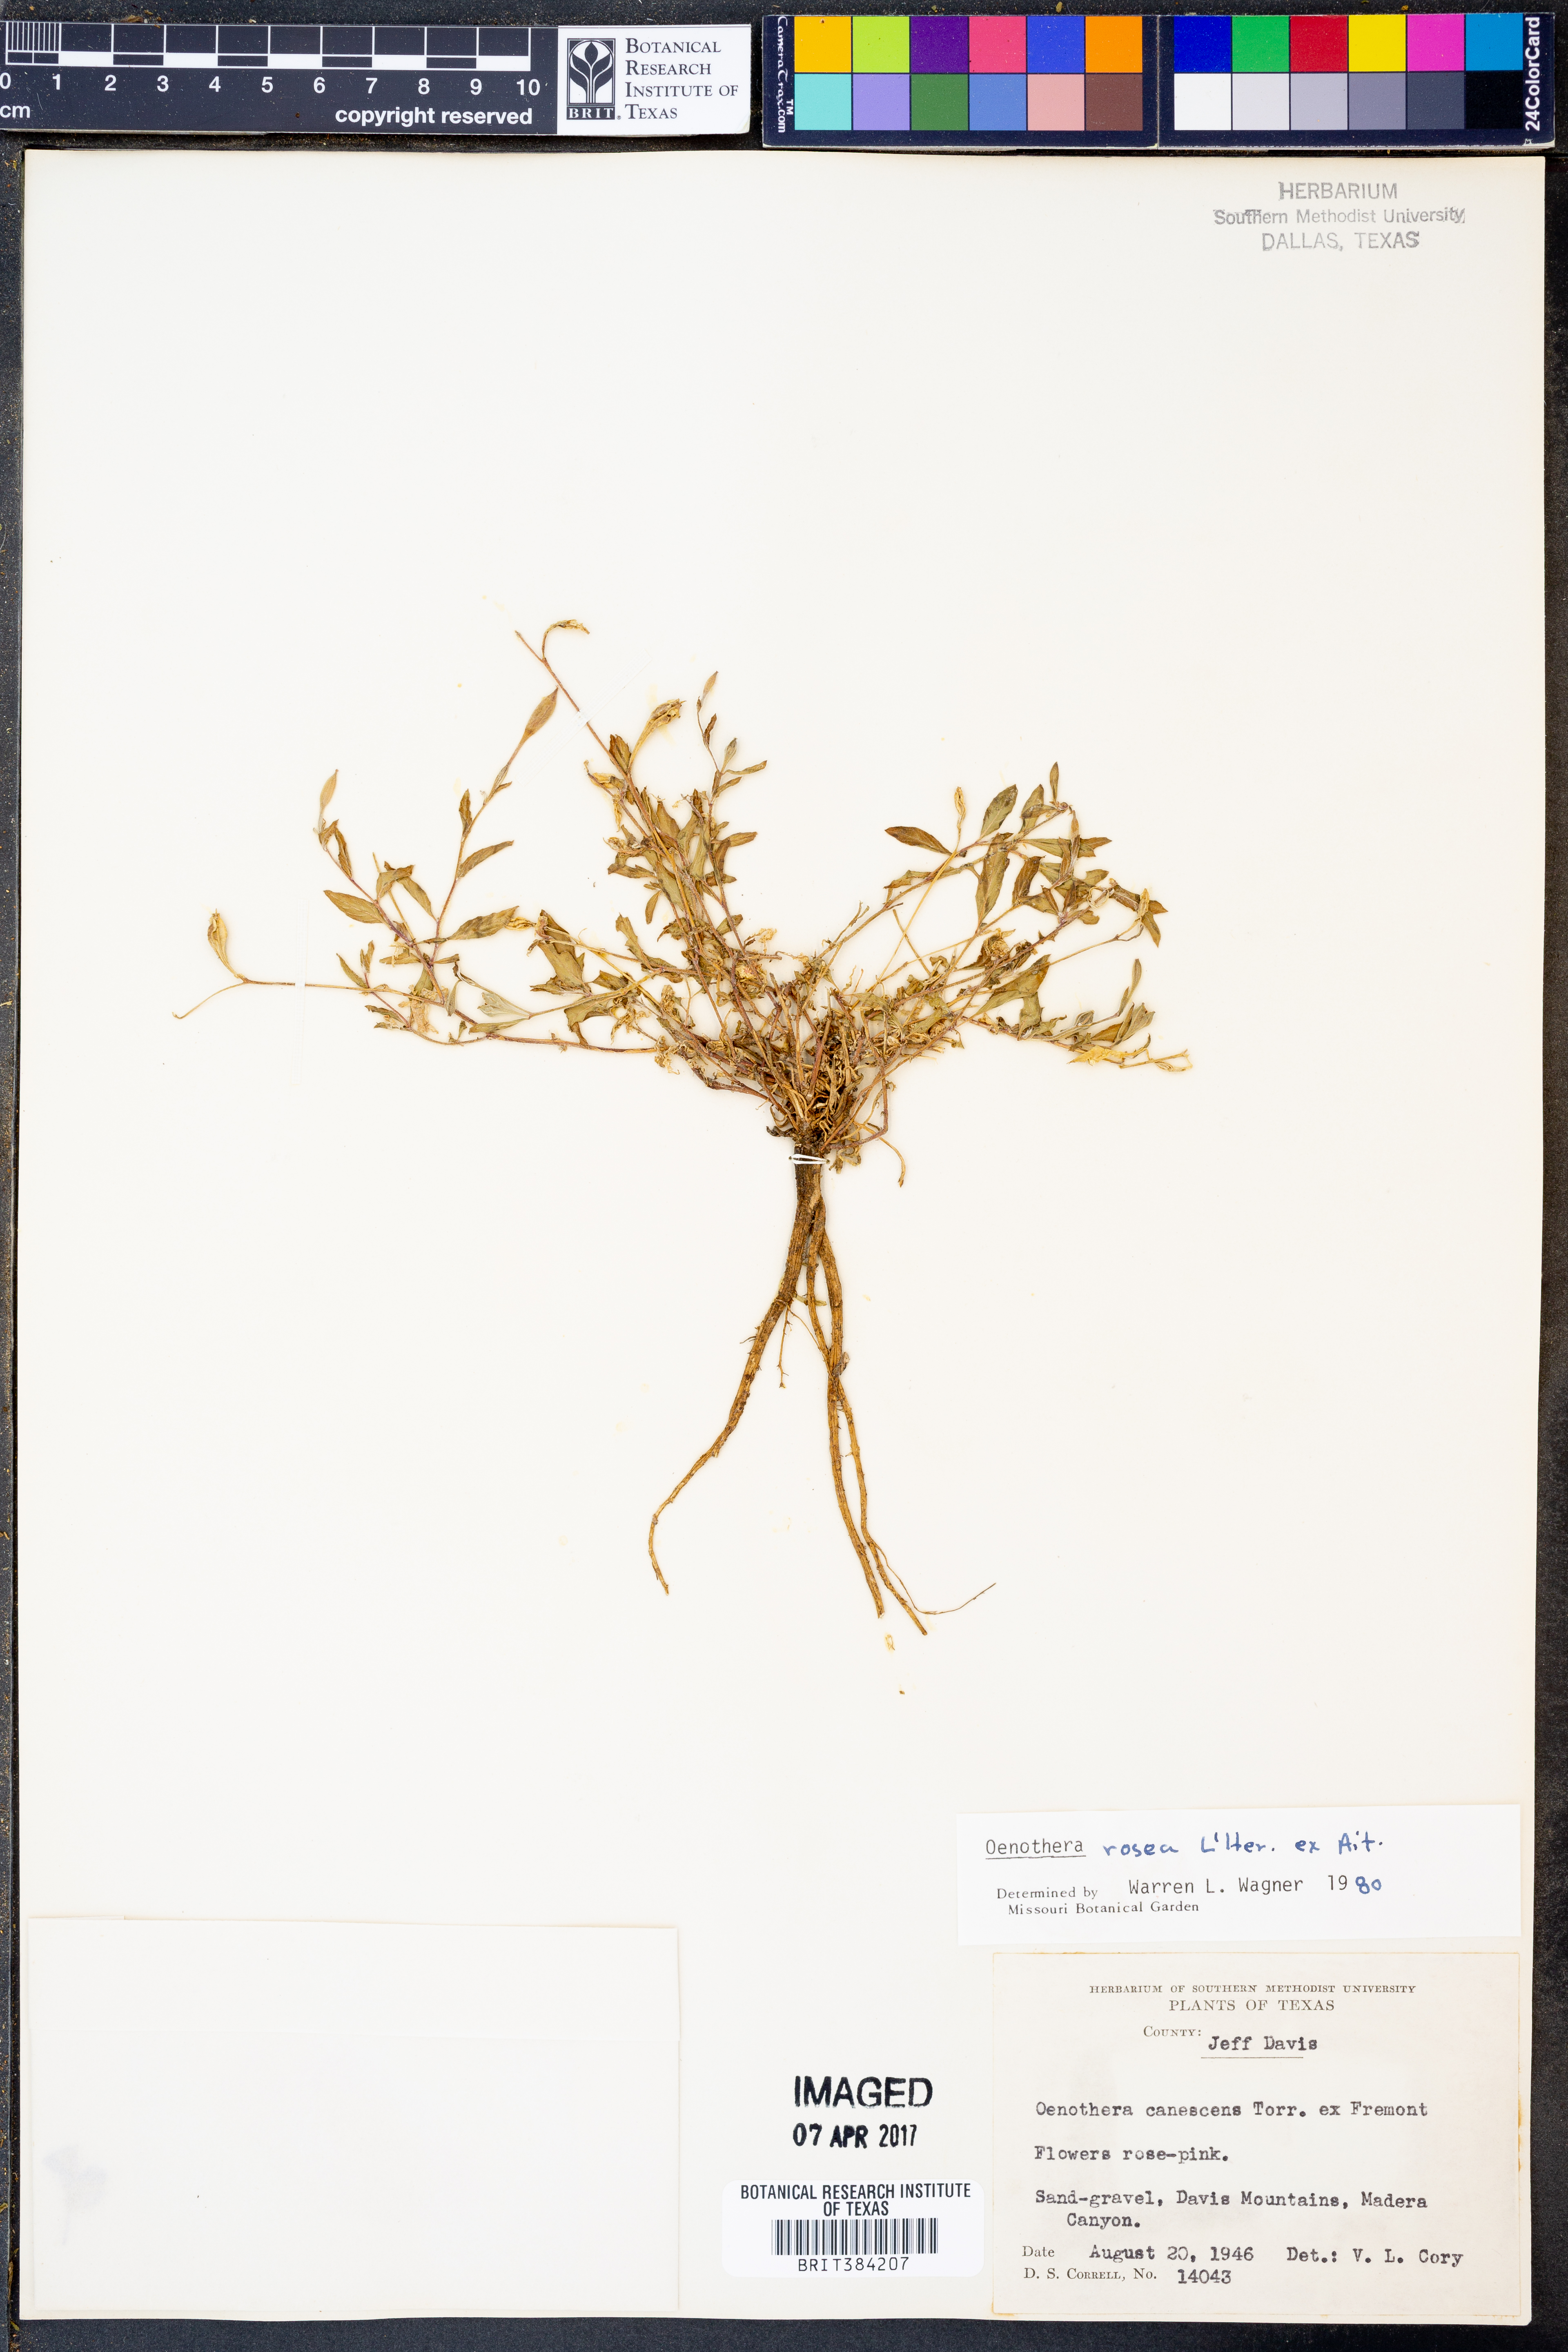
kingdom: Plantae
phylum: Tracheophyta
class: Magnoliopsida
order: Myrtales
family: Onagraceae
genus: Oenothera
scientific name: Oenothera rosea
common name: Rosy evening-primrose
